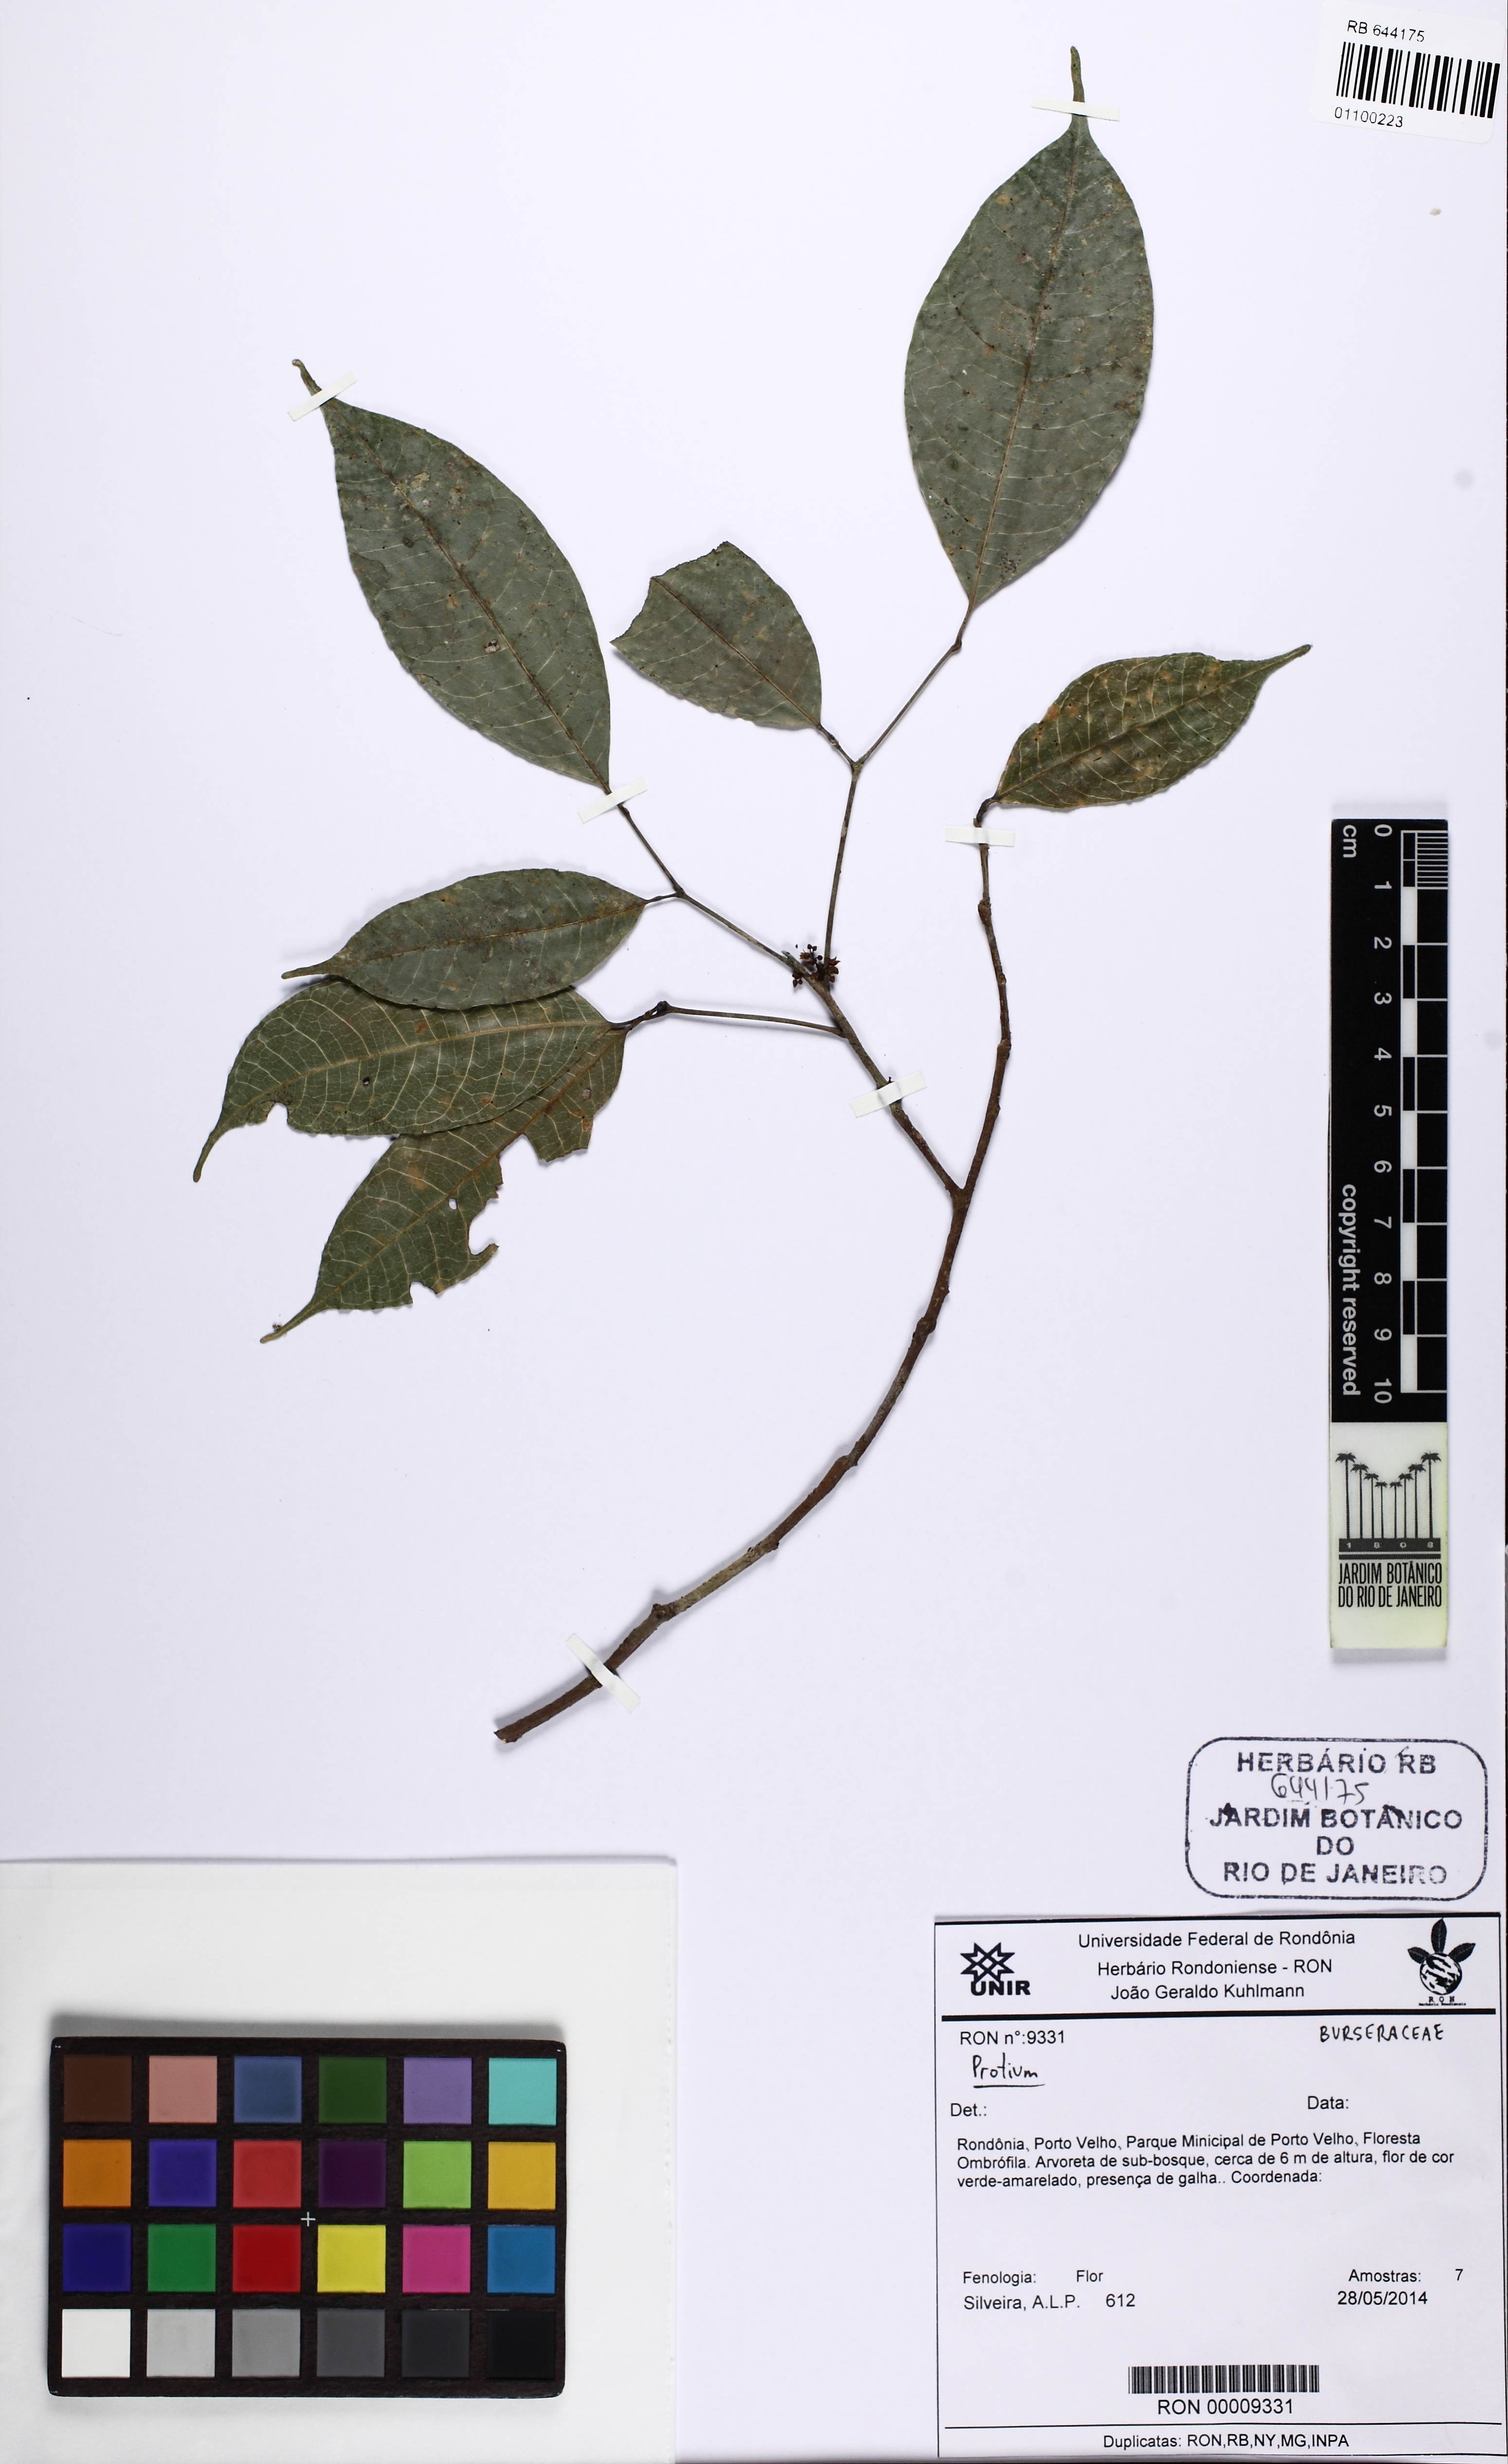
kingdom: Plantae
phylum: Tracheophyta
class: Magnoliopsida
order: Sapindales
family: Burseraceae
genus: Protium
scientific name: Protium leptostachyum
